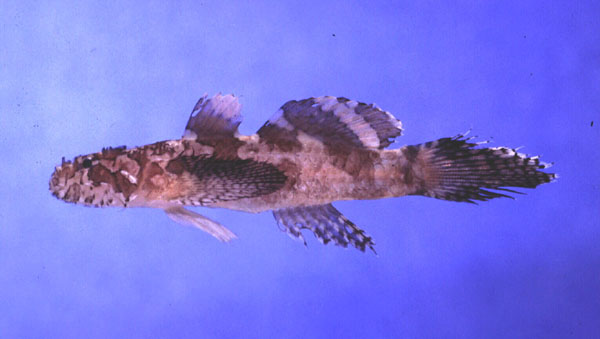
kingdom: Animalia
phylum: Chordata
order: Perciformes
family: Gobiidae
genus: Callogobius
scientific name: Callogobius plumatus
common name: Feather goby
